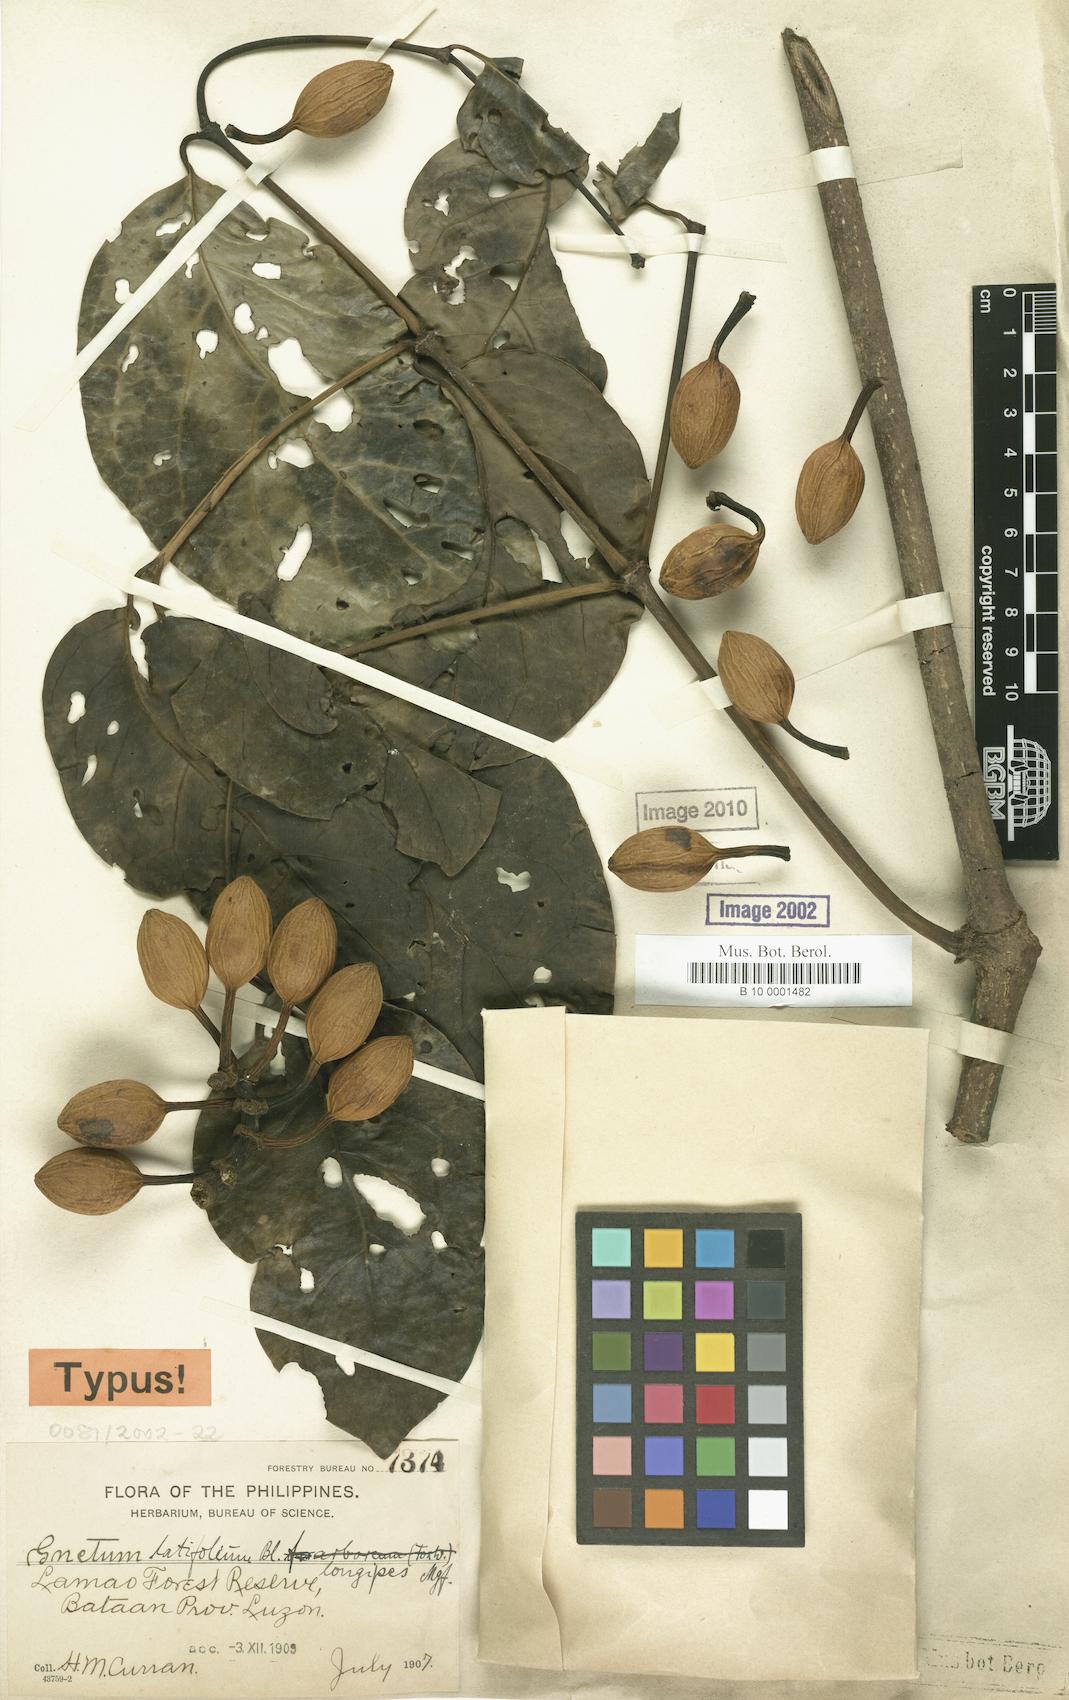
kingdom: Plantae
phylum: Tracheophyta
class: Gnetopsida
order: Gnetales
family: Gnetaceae
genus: Gnetum
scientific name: Gnetum latifolium
